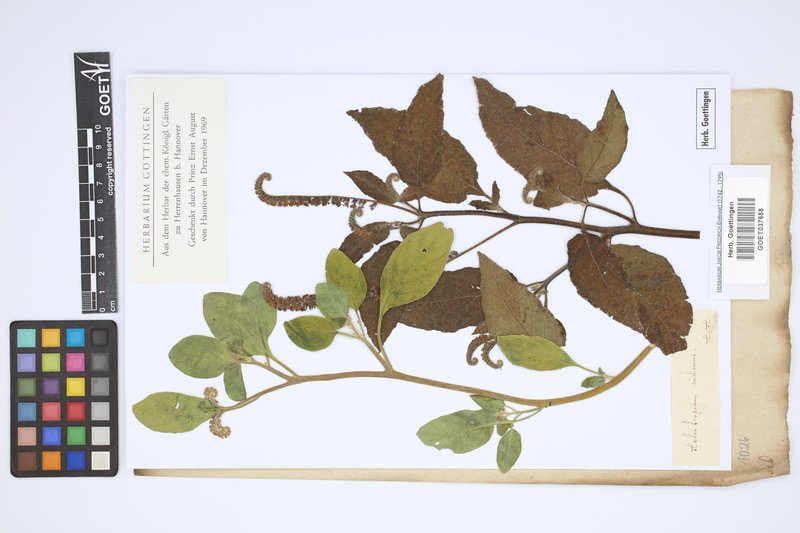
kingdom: Plantae
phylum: Tracheophyta
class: Magnoliopsida
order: Boraginales
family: Heliotropiaceae
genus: Heliotropium
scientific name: Heliotropium indicum
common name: Indian heliotrope
